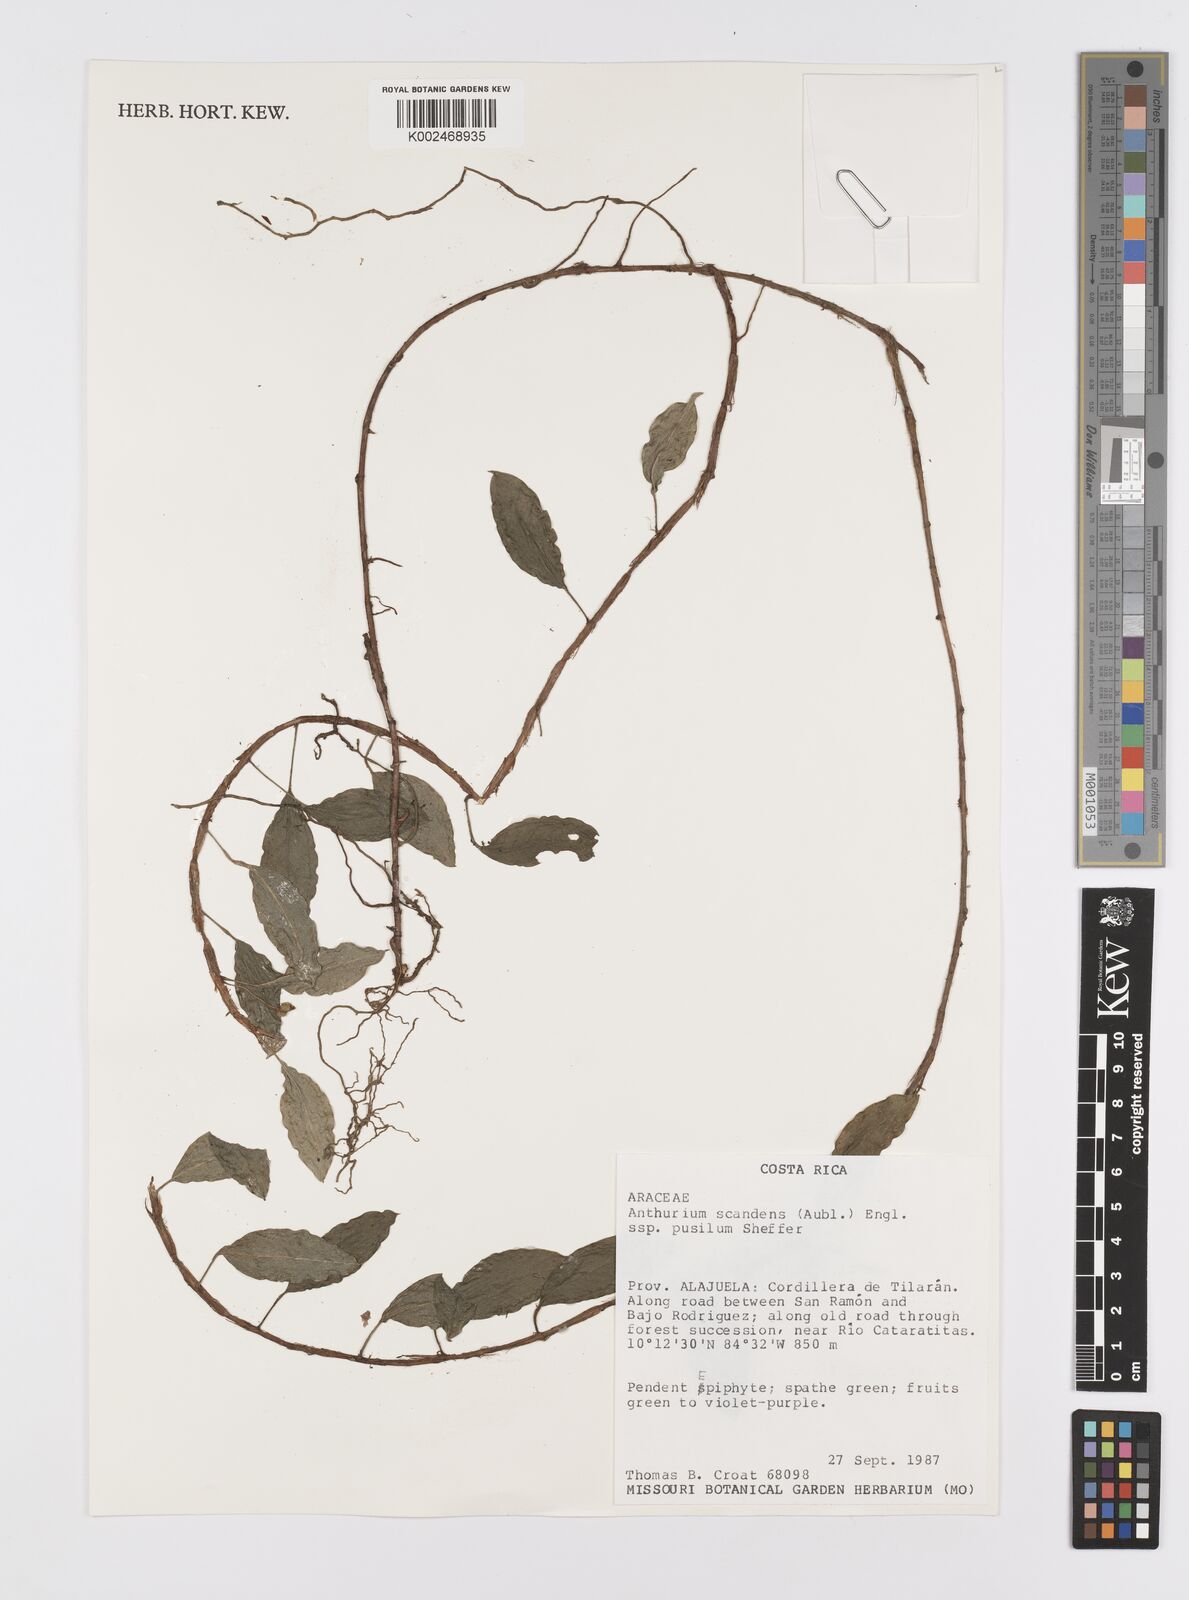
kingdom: Plantae
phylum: Tracheophyta
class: Liliopsida
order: Alismatales
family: Araceae
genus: Anthurium
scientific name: Anthurium scandens
